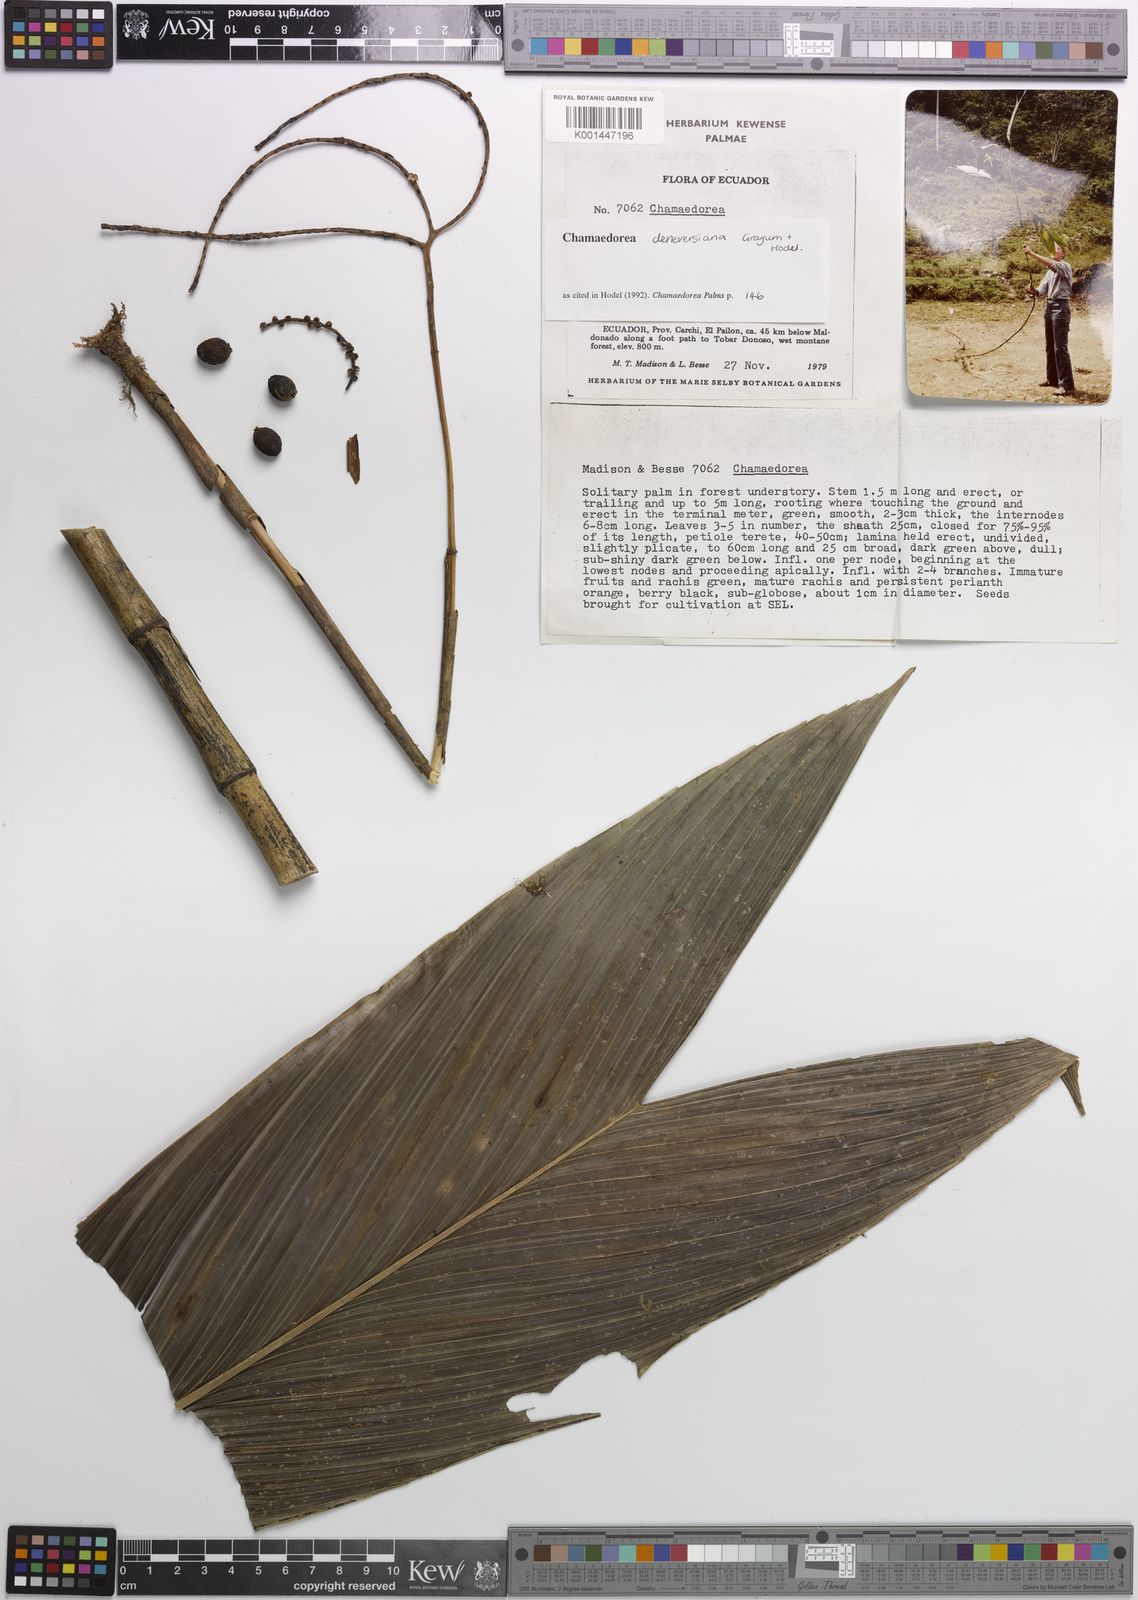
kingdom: Plantae
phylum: Tracheophyta
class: Liliopsida
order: Arecales
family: Arecaceae
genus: Chamaedorea
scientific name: Chamaedorea deneversiana
